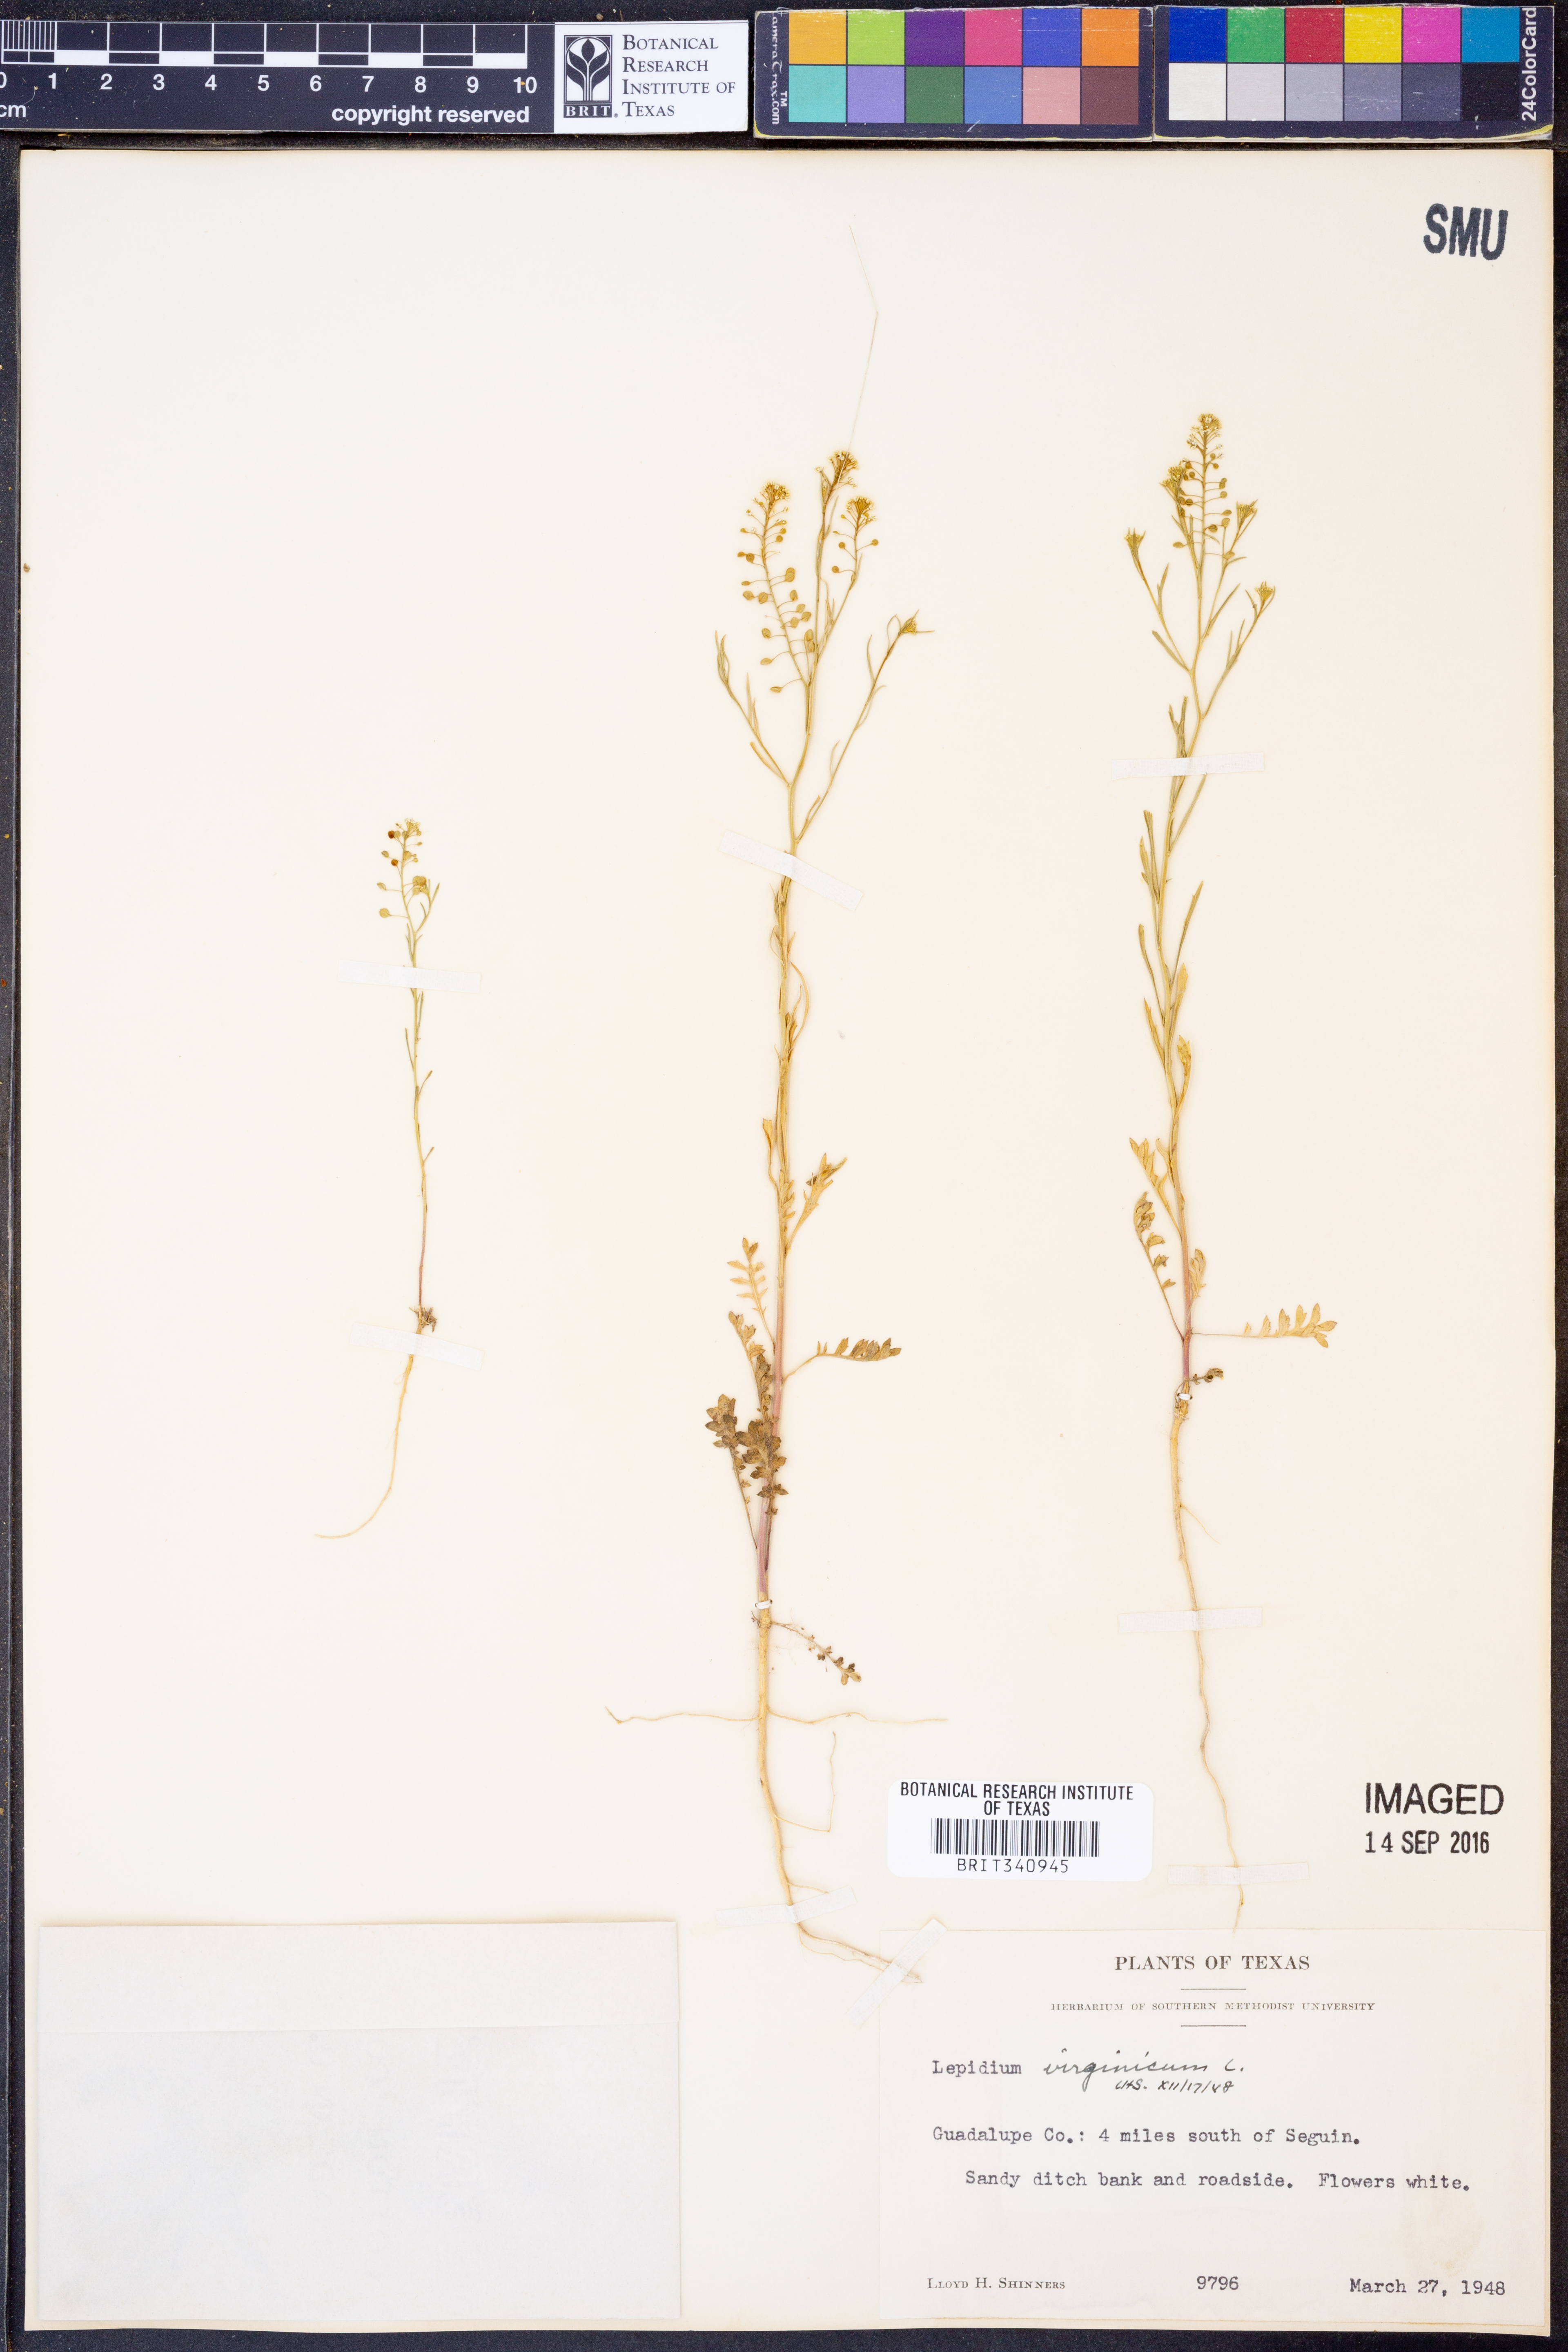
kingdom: Plantae
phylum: Tracheophyta
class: Magnoliopsida
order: Brassicales
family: Brassicaceae
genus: Lepidium
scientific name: Lepidium virginicum
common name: Least pepperwort
